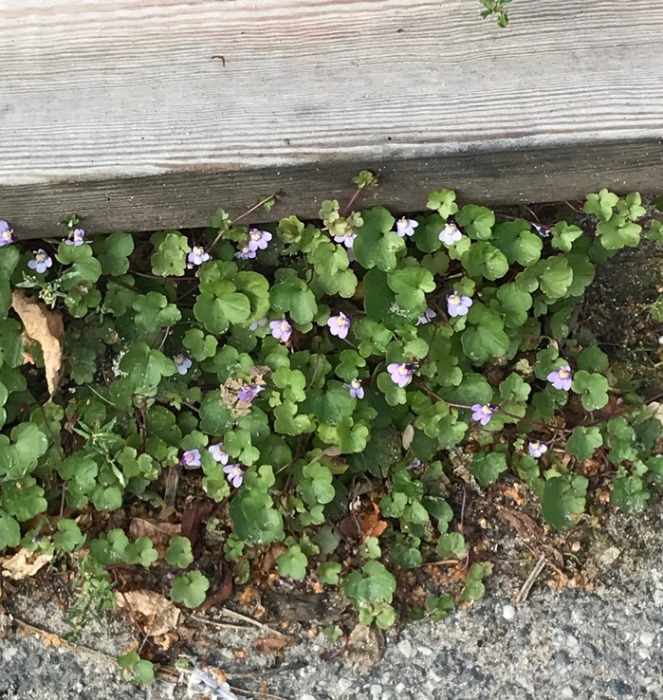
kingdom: Plantae
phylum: Tracheophyta
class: Magnoliopsida
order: Lamiales
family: Plantaginaceae
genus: Cymbalaria
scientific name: Cymbalaria muralis
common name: Vedbend-torskemund
